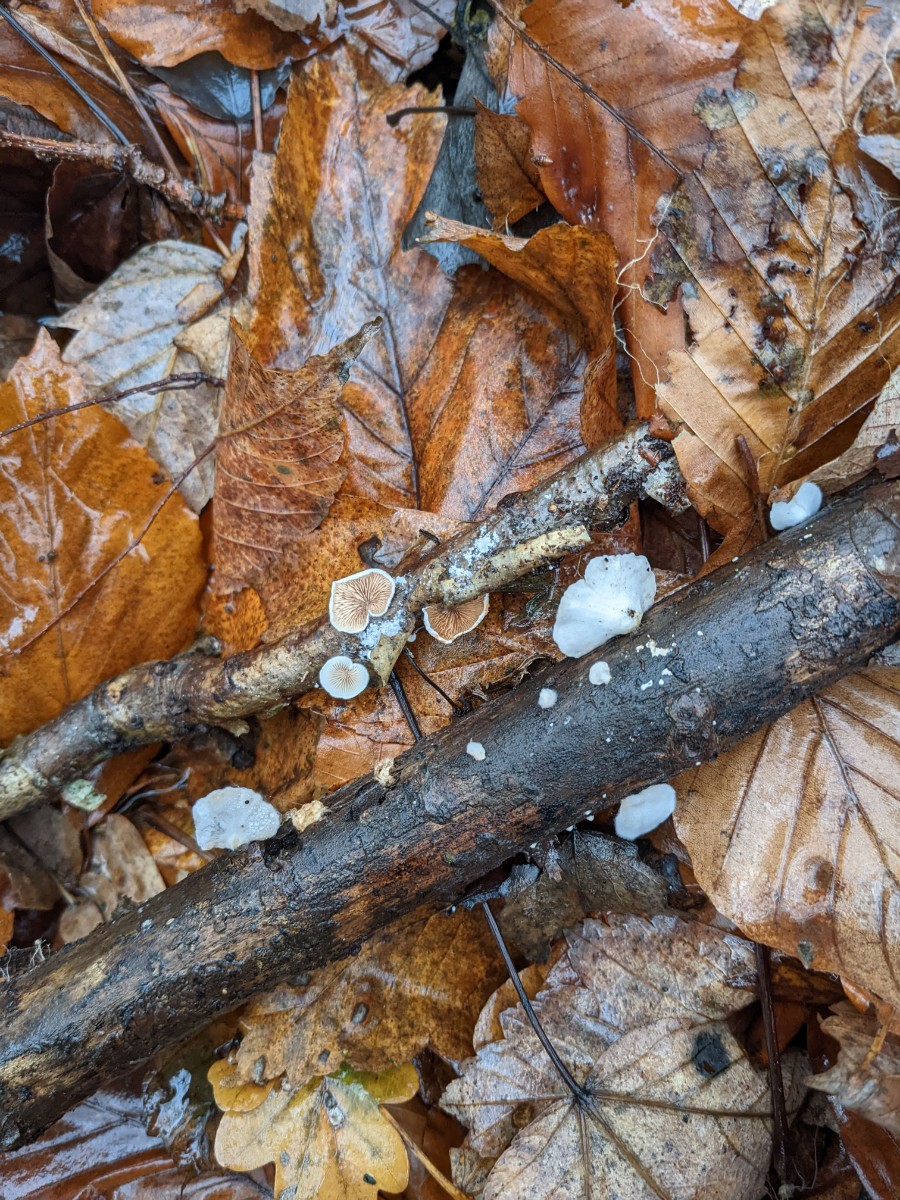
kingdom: Fungi
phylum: Basidiomycota
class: Agaricomycetes
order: Agaricales
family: Crepidotaceae
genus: Crepidotus
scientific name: Crepidotus variabilis
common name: forskelligformet muslingesvamp
